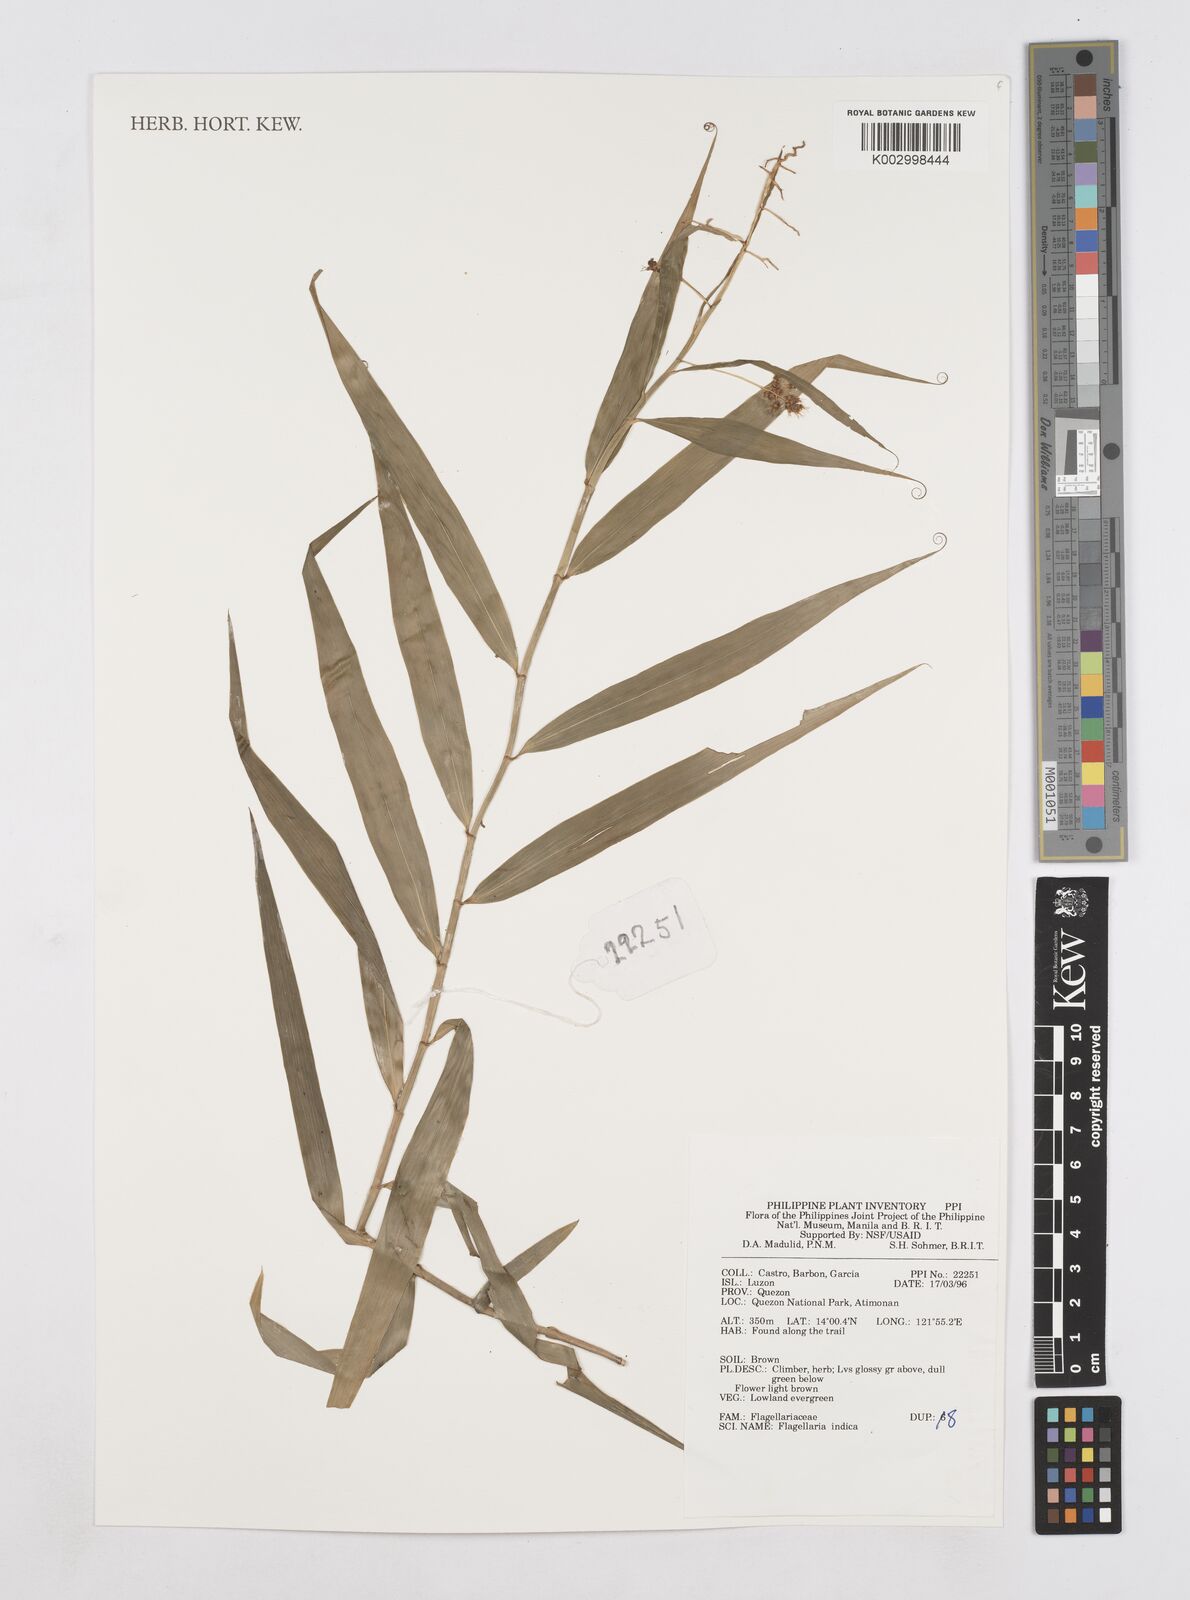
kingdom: Plantae
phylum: Tracheophyta
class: Liliopsida
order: Poales
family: Flagellariaceae
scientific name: Flagellariaceae
